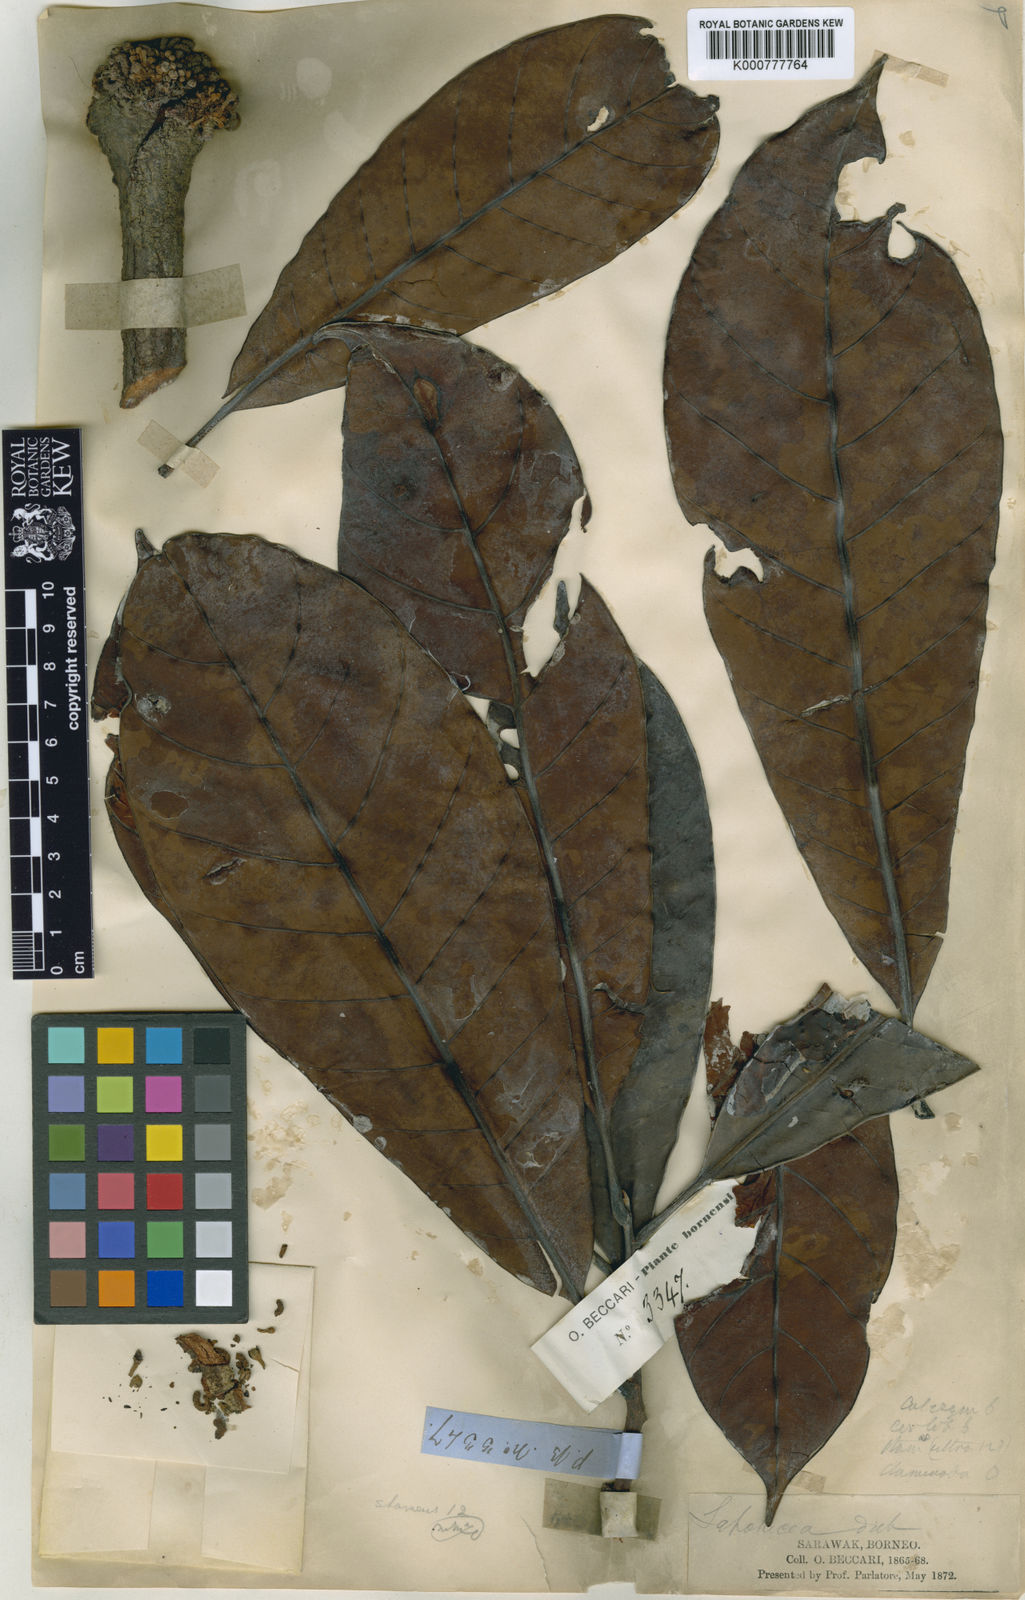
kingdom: Plantae
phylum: Tracheophyta
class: Magnoliopsida
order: Ericales
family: Sapotaceae
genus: Aulandra
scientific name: Aulandra beccarii
